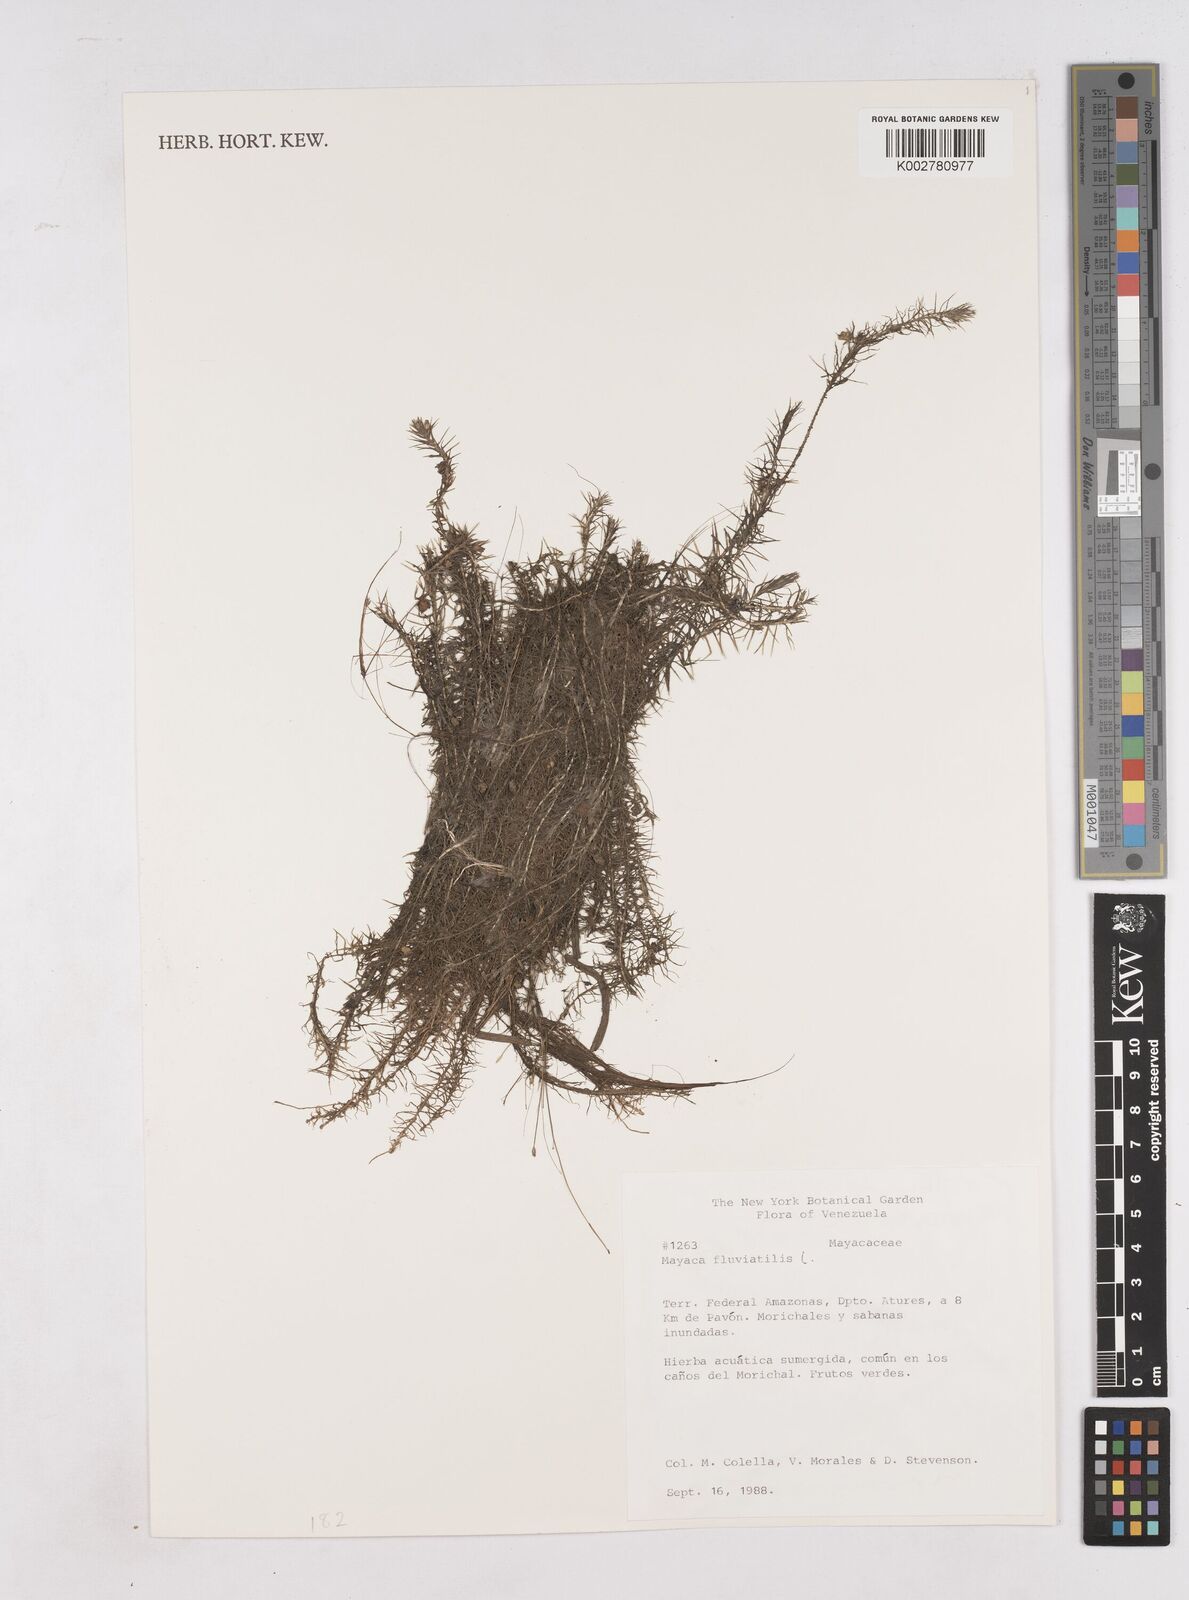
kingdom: Plantae
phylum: Tracheophyta
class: Liliopsida
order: Poales
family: Mayacaceae
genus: Mayaca
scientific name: Mayaca fluviatilis
